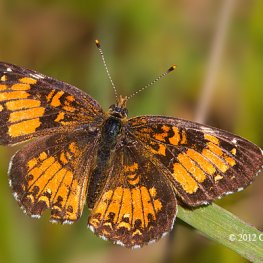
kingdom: Animalia
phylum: Arthropoda
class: Insecta
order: Lepidoptera
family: Nymphalidae
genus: Chlosyne
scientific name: Chlosyne harrisii
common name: Harris's Checkerspot
